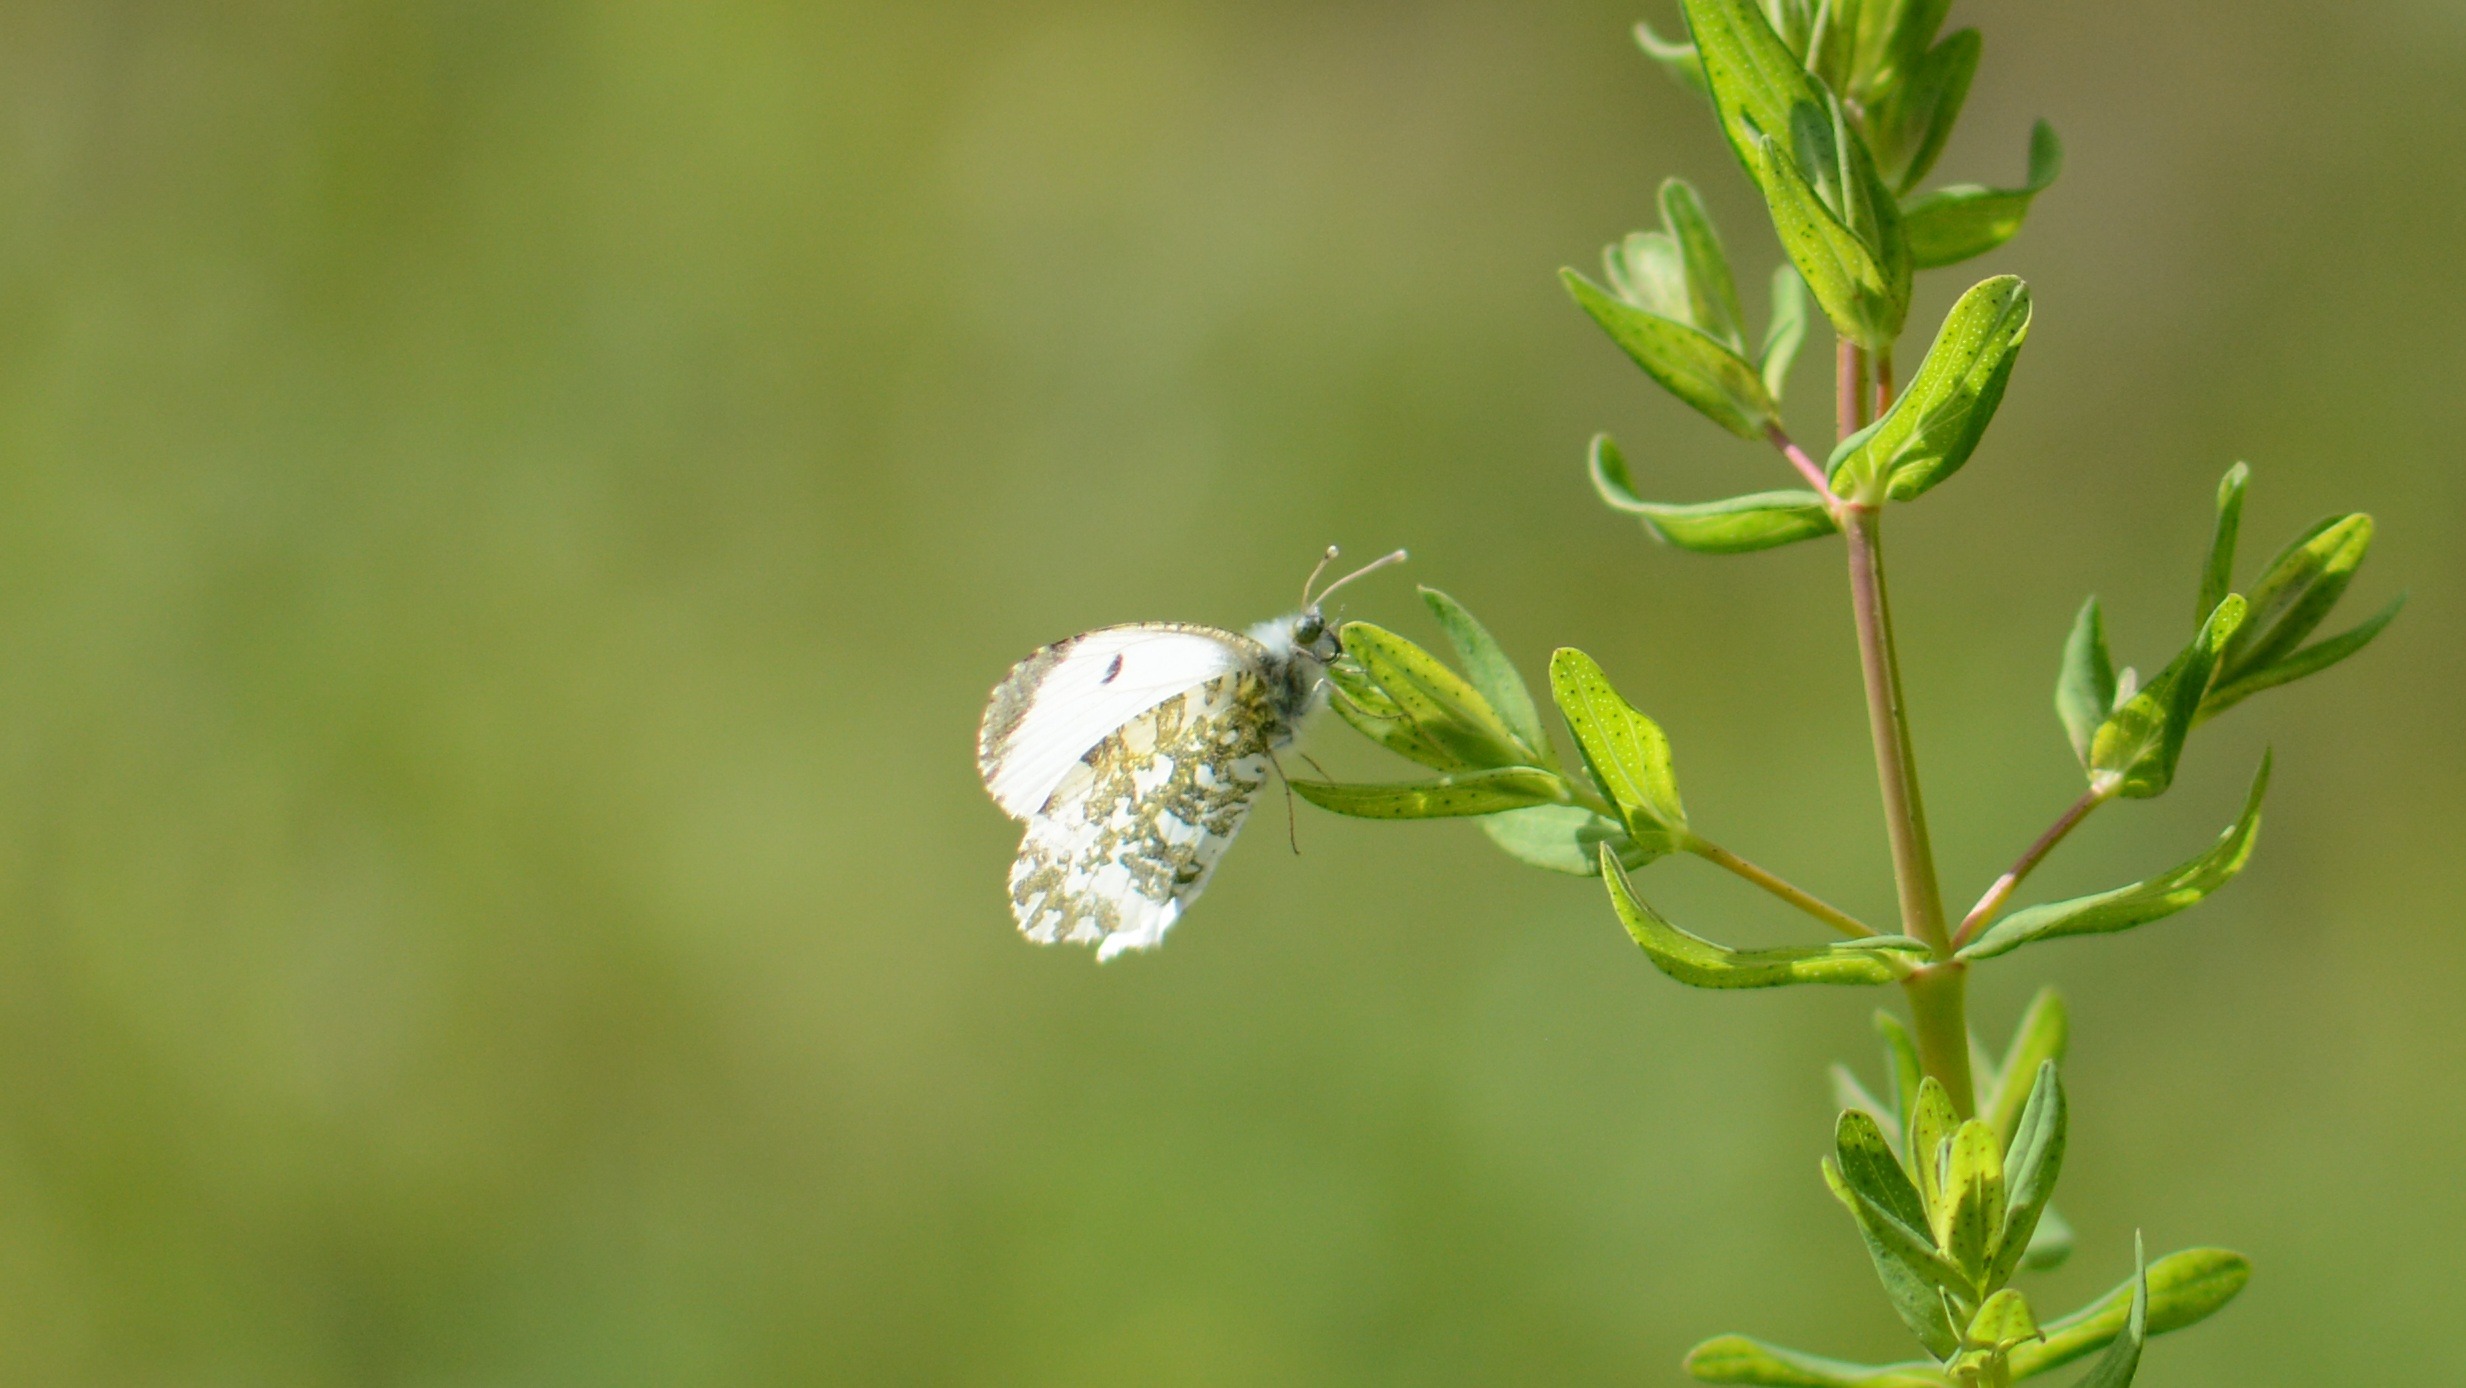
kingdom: Animalia
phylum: Arthropoda
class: Insecta
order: Lepidoptera
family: Pieridae
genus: Anthocharis
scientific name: Anthocharis cardamines
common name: Aurora
